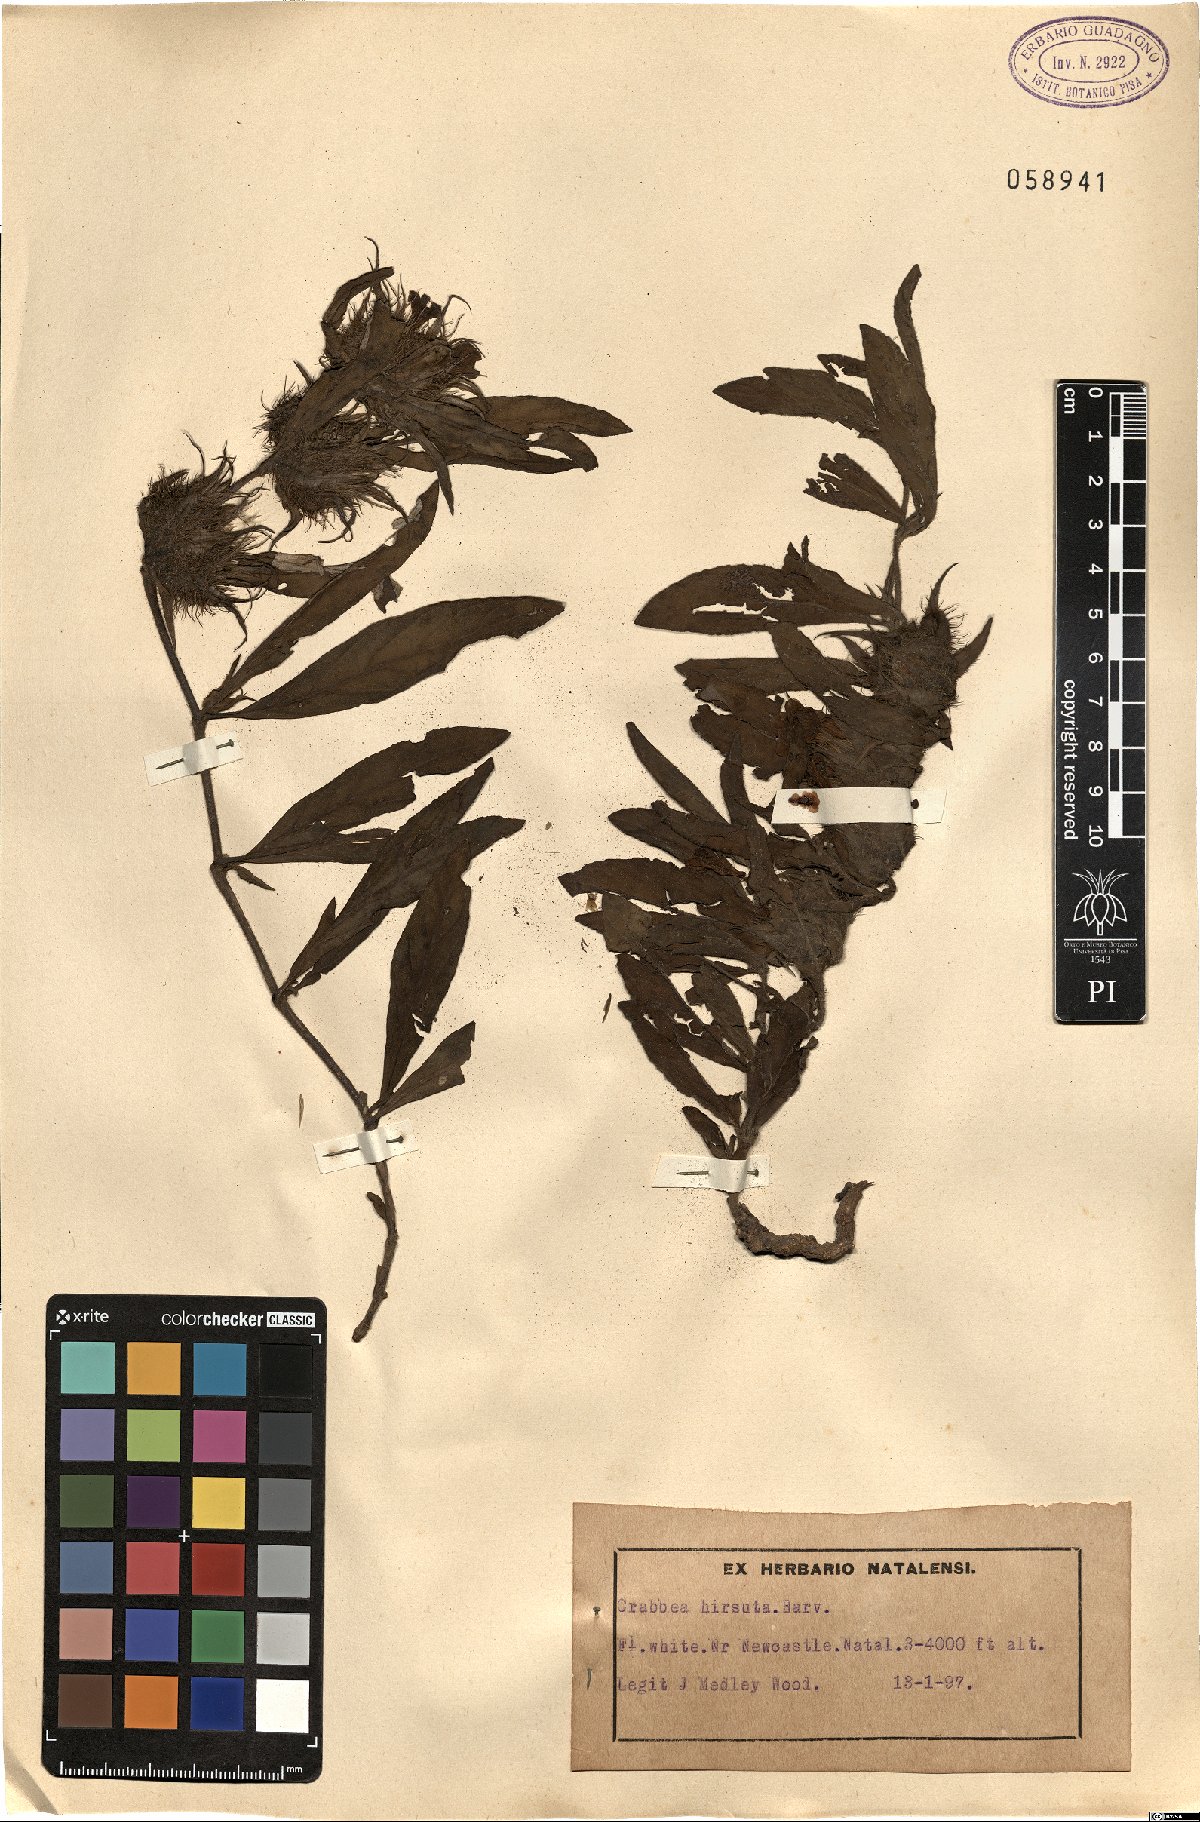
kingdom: Plantae
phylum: Tracheophyta
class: Magnoliopsida
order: Lamiales
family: Acanthaceae
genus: Crabbea
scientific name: Crabbea cirsioides
